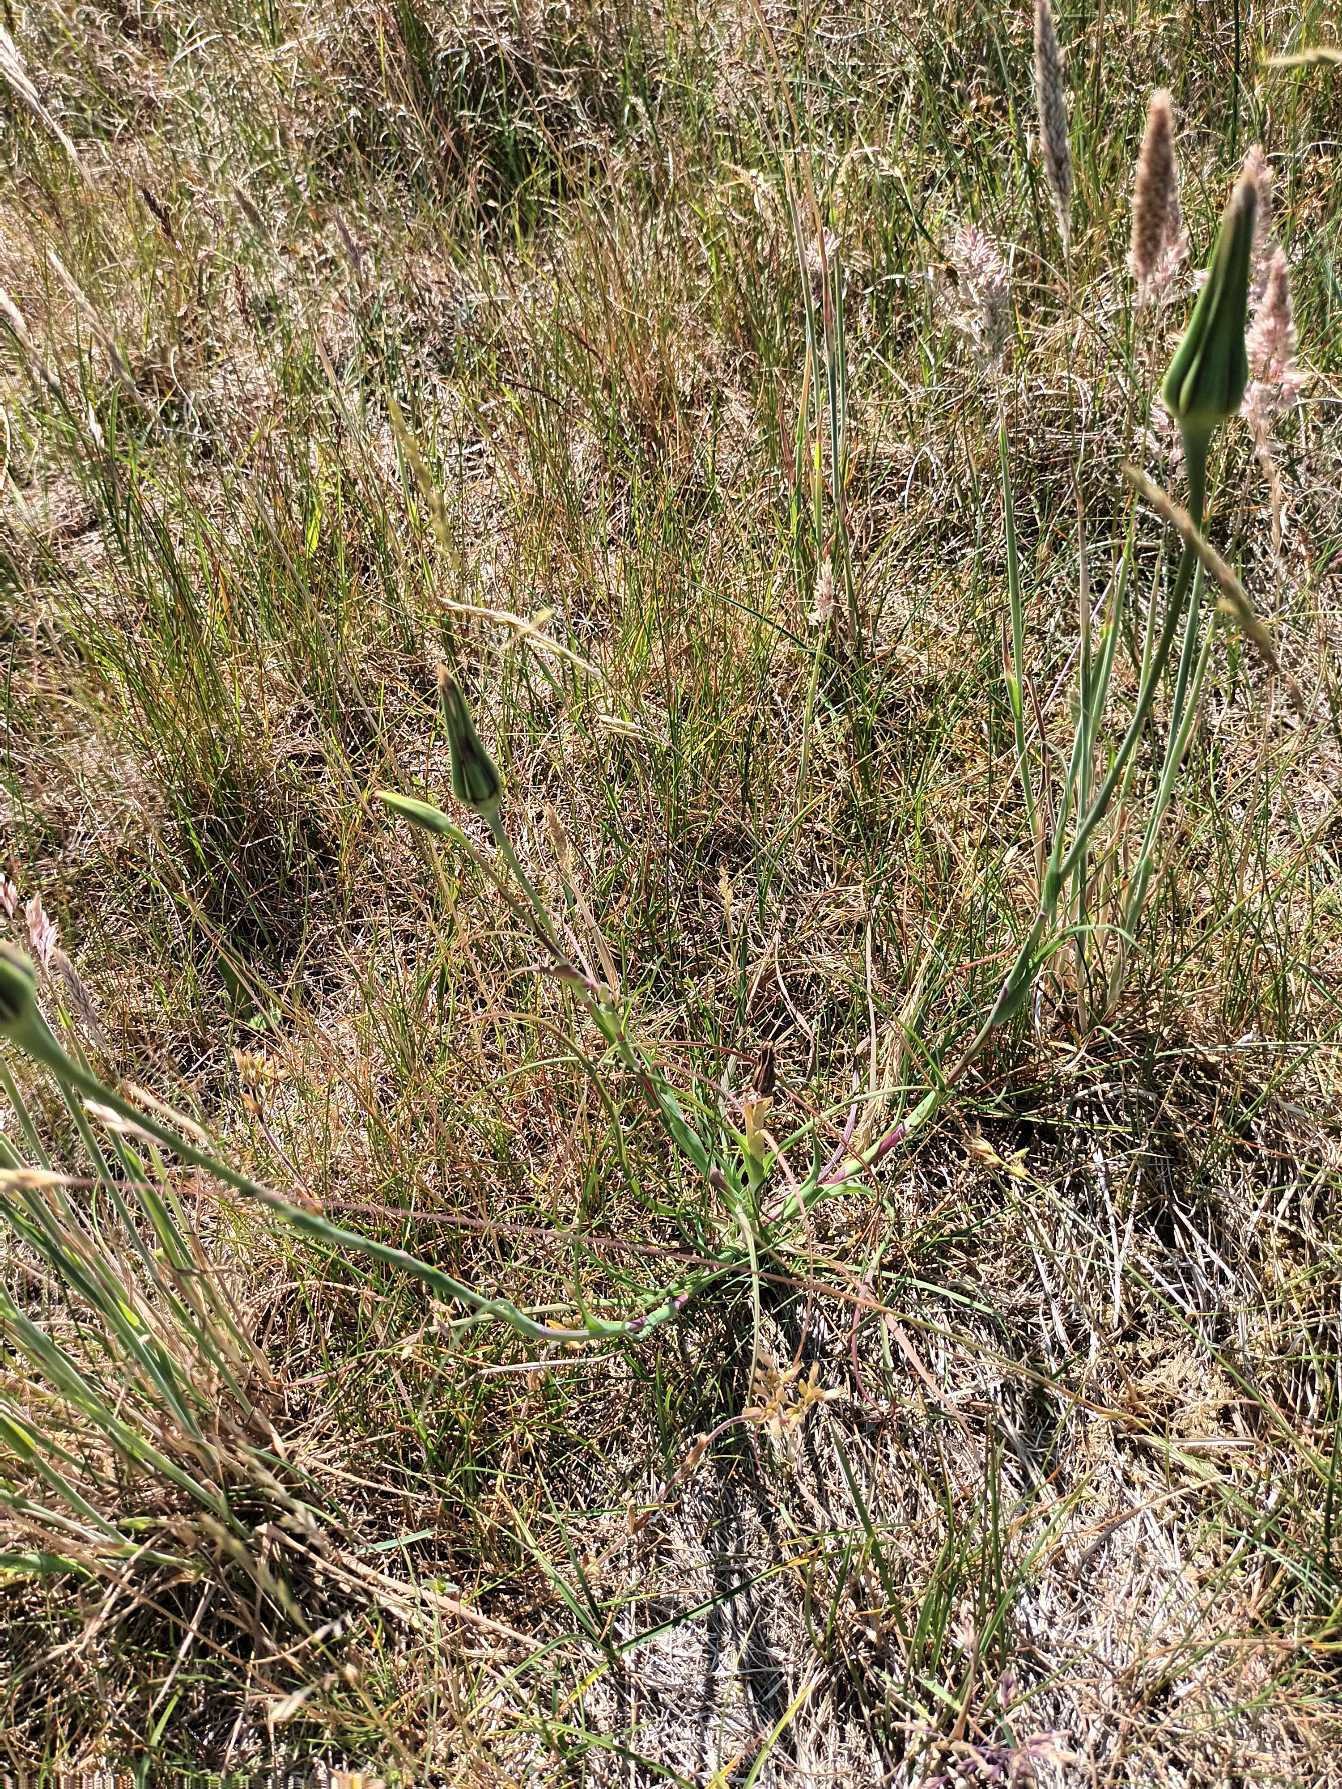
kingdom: Plantae
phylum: Tracheophyta
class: Magnoliopsida
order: Asterales
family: Asteraceae
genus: Tragopogon
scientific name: Tragopogon minor
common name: Småkronet gedeskæg
